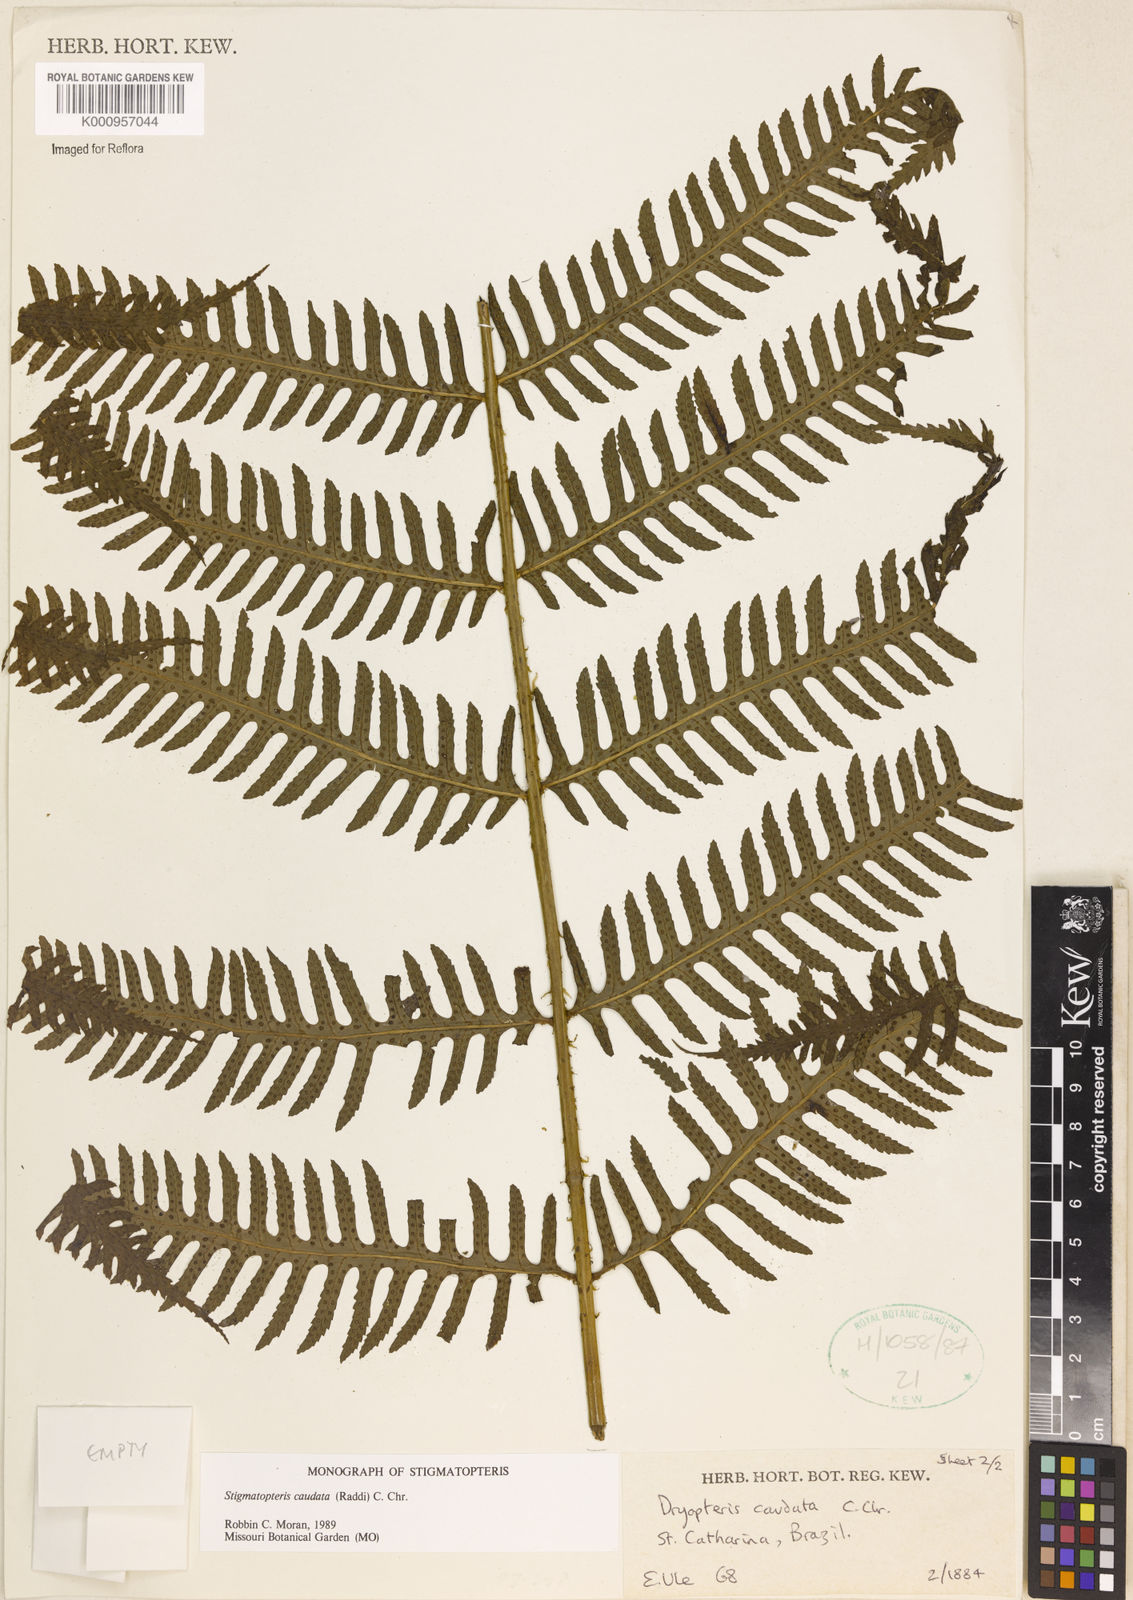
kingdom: Plantae
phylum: Tracheophyta
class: Polypodiopsida
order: Polypodiales
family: Dryopteridaceae
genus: Stigmatopteris
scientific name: Stigmatopteris caudata
